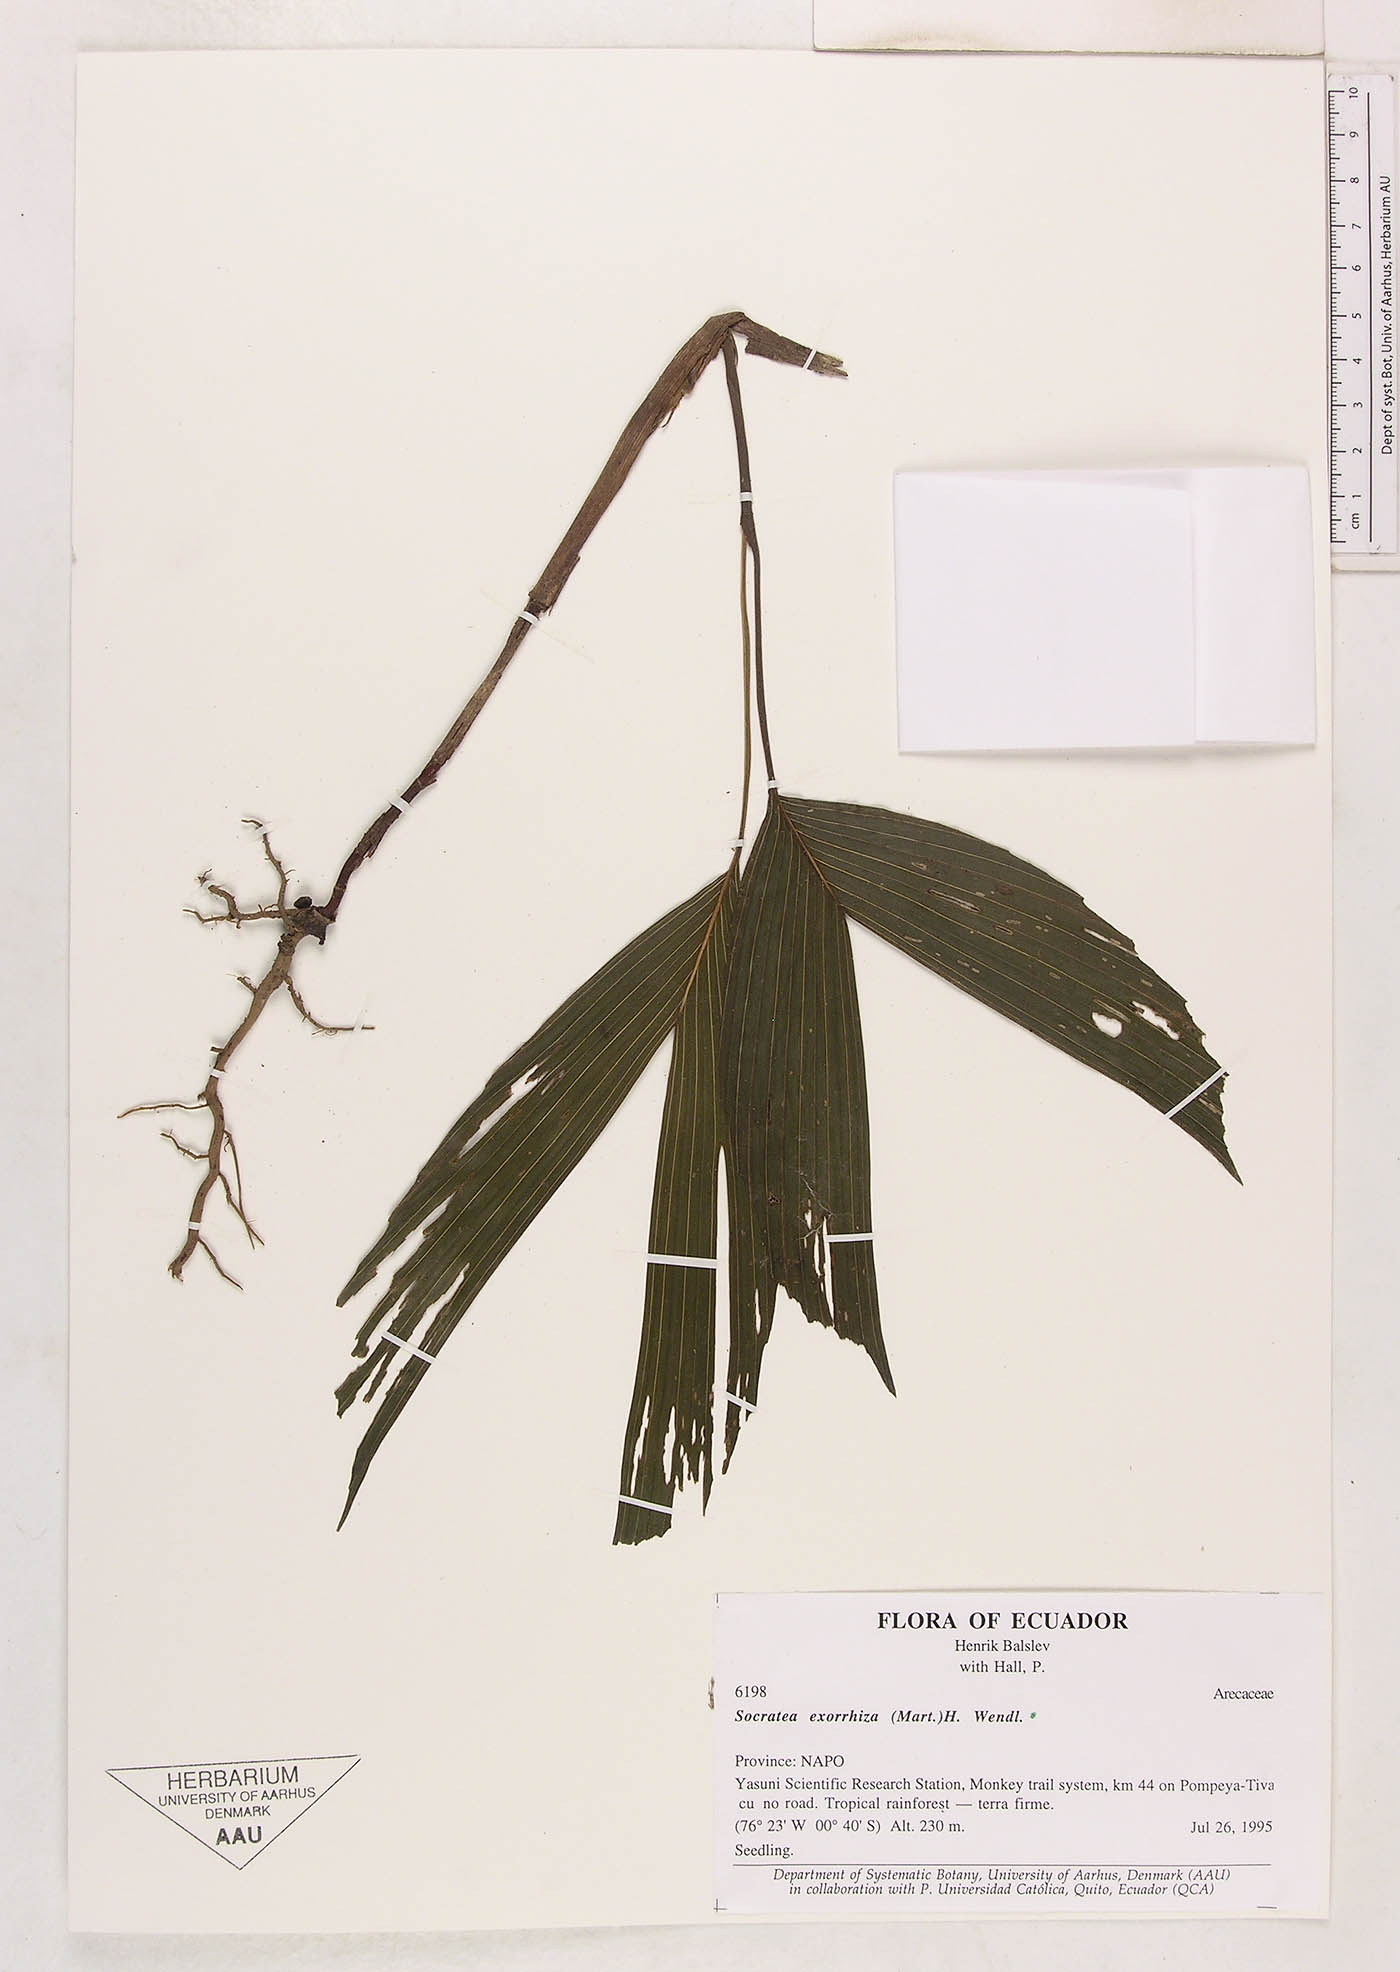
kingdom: Plantae
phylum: Tracheophyta
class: Liliopsida
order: Arecales
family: Arecaceae
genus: Socratea
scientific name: Socratea exorrhiza
